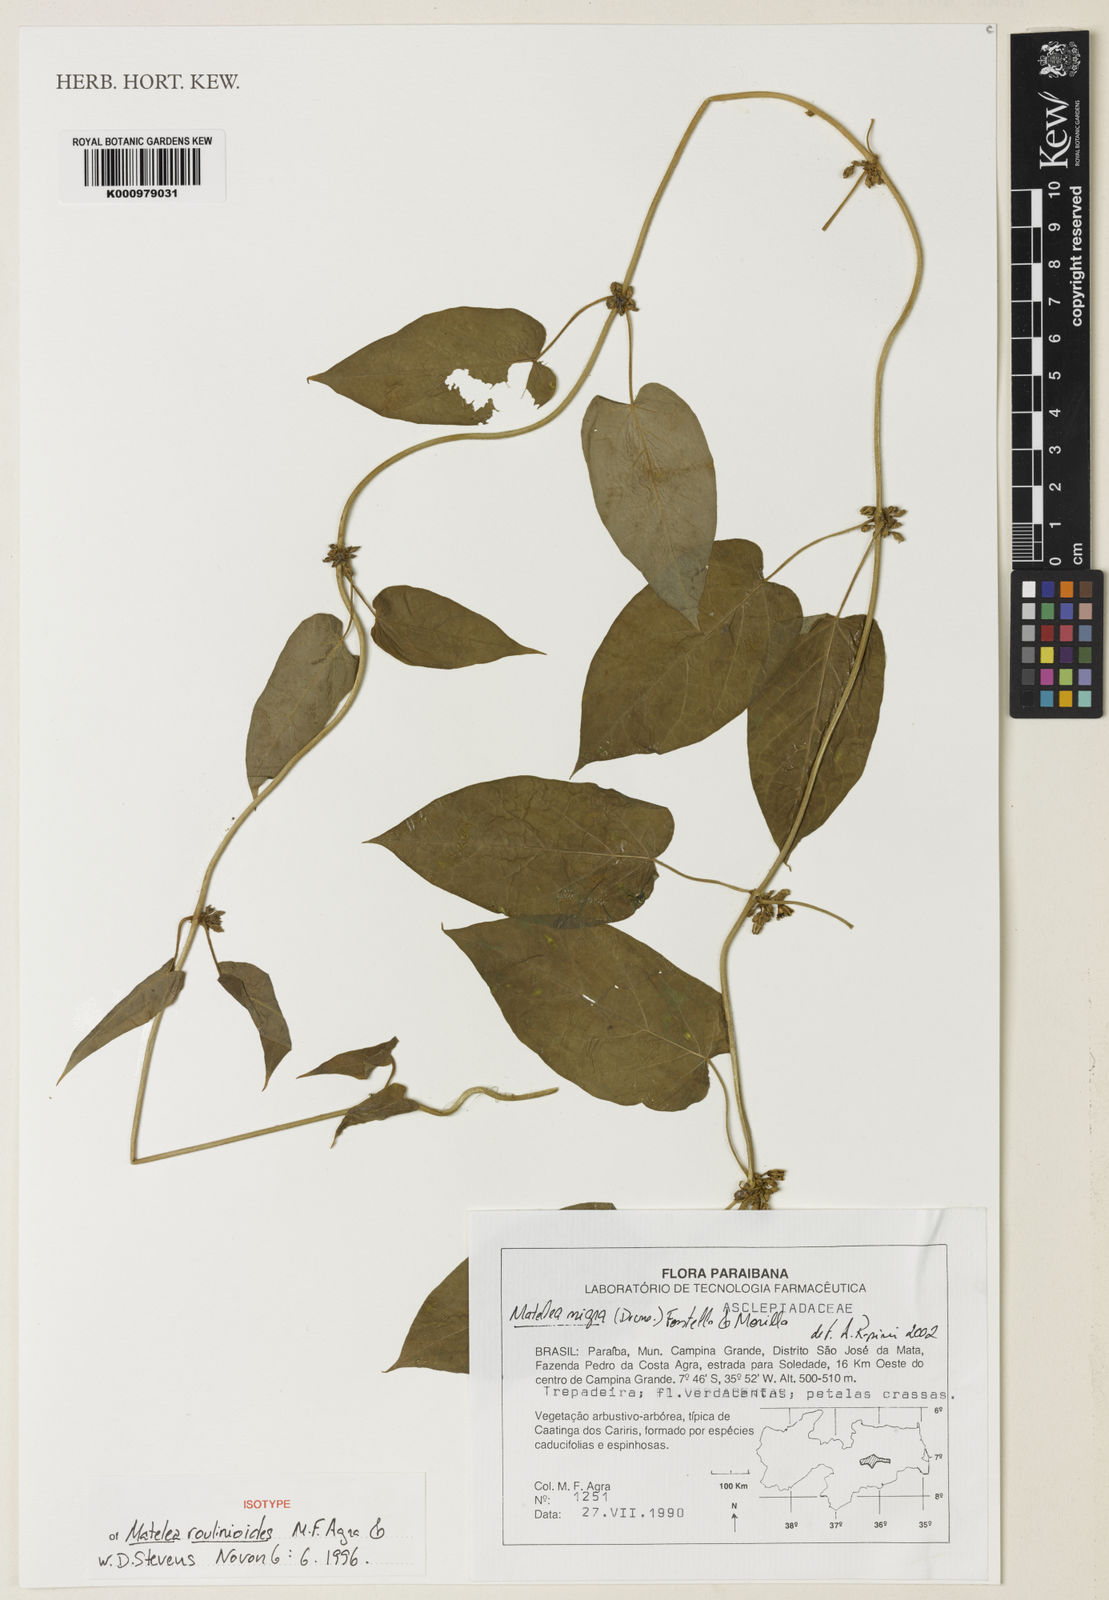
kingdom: Plantae
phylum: Tracheophyta
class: Magnoliopsida
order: Gentianales
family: Apocynaceae
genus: Ibatia
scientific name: Ibatia
